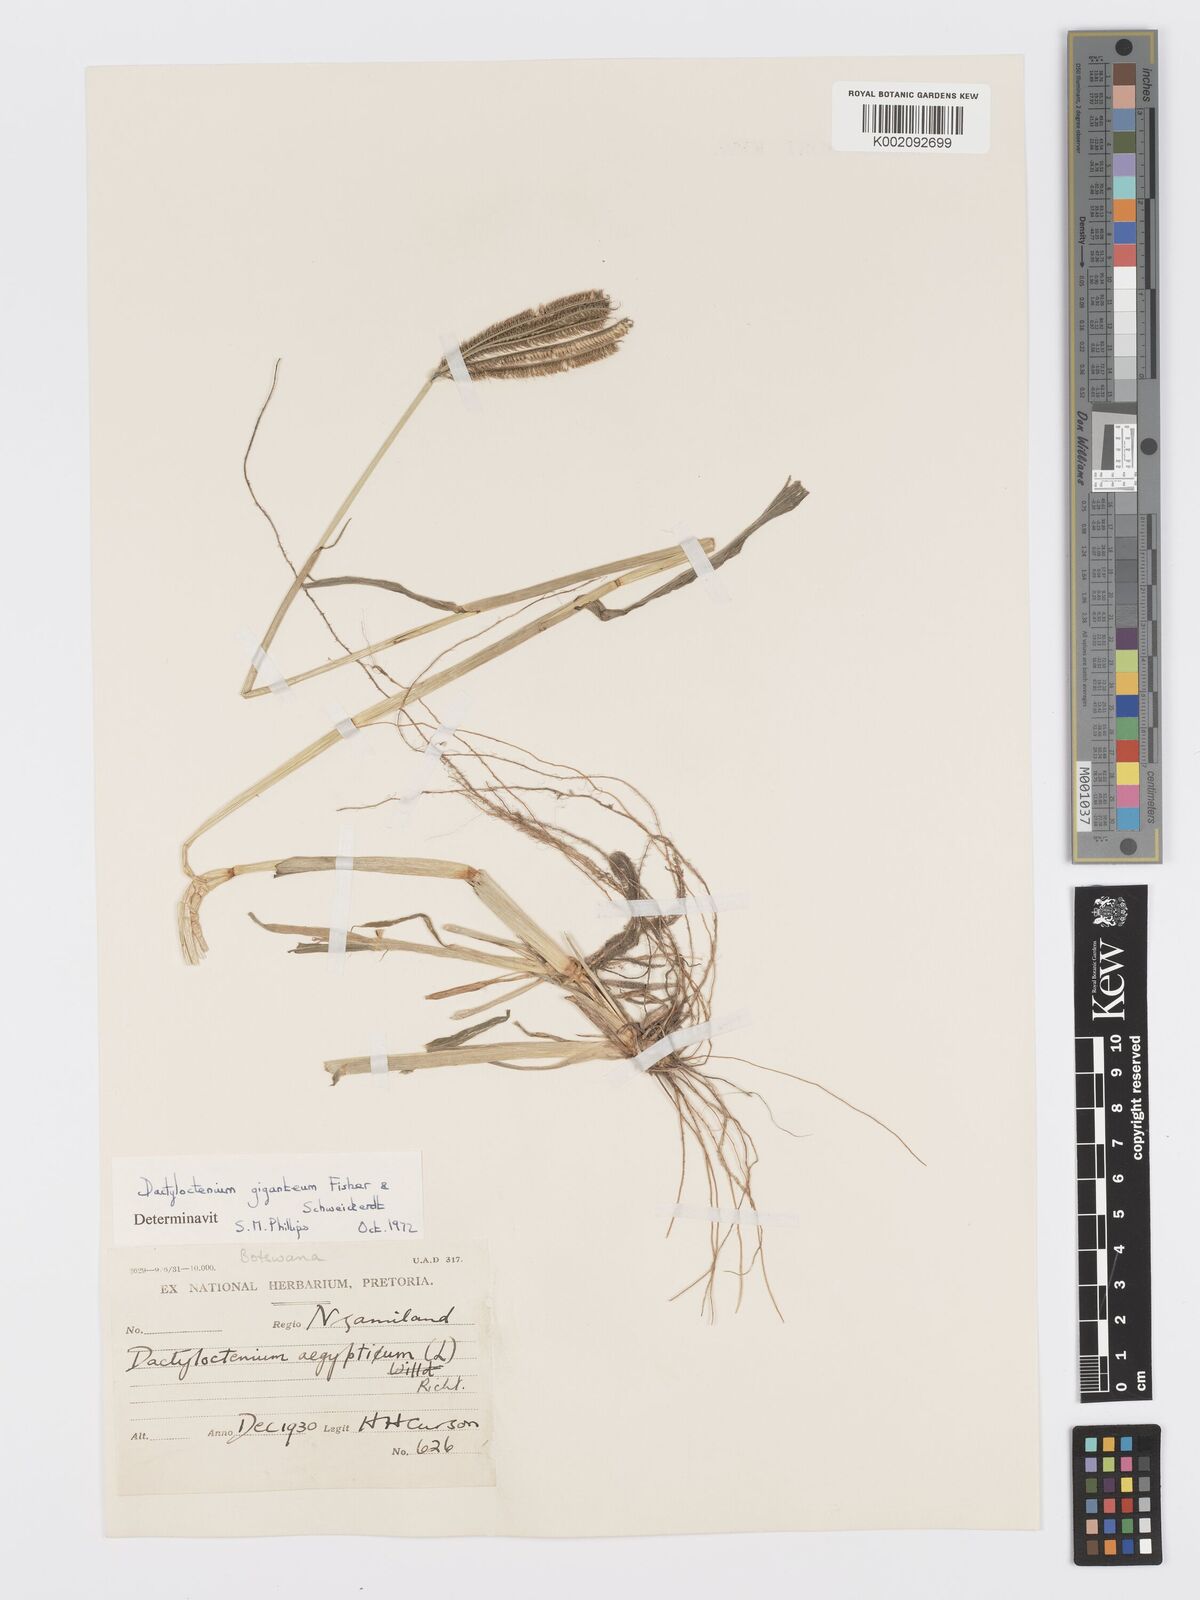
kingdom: Plantae
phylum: Tracheophyta
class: Liliopsida
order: Poales
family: Poaceae
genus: Dactyloctenium
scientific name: Dactyloctenium giganteum
